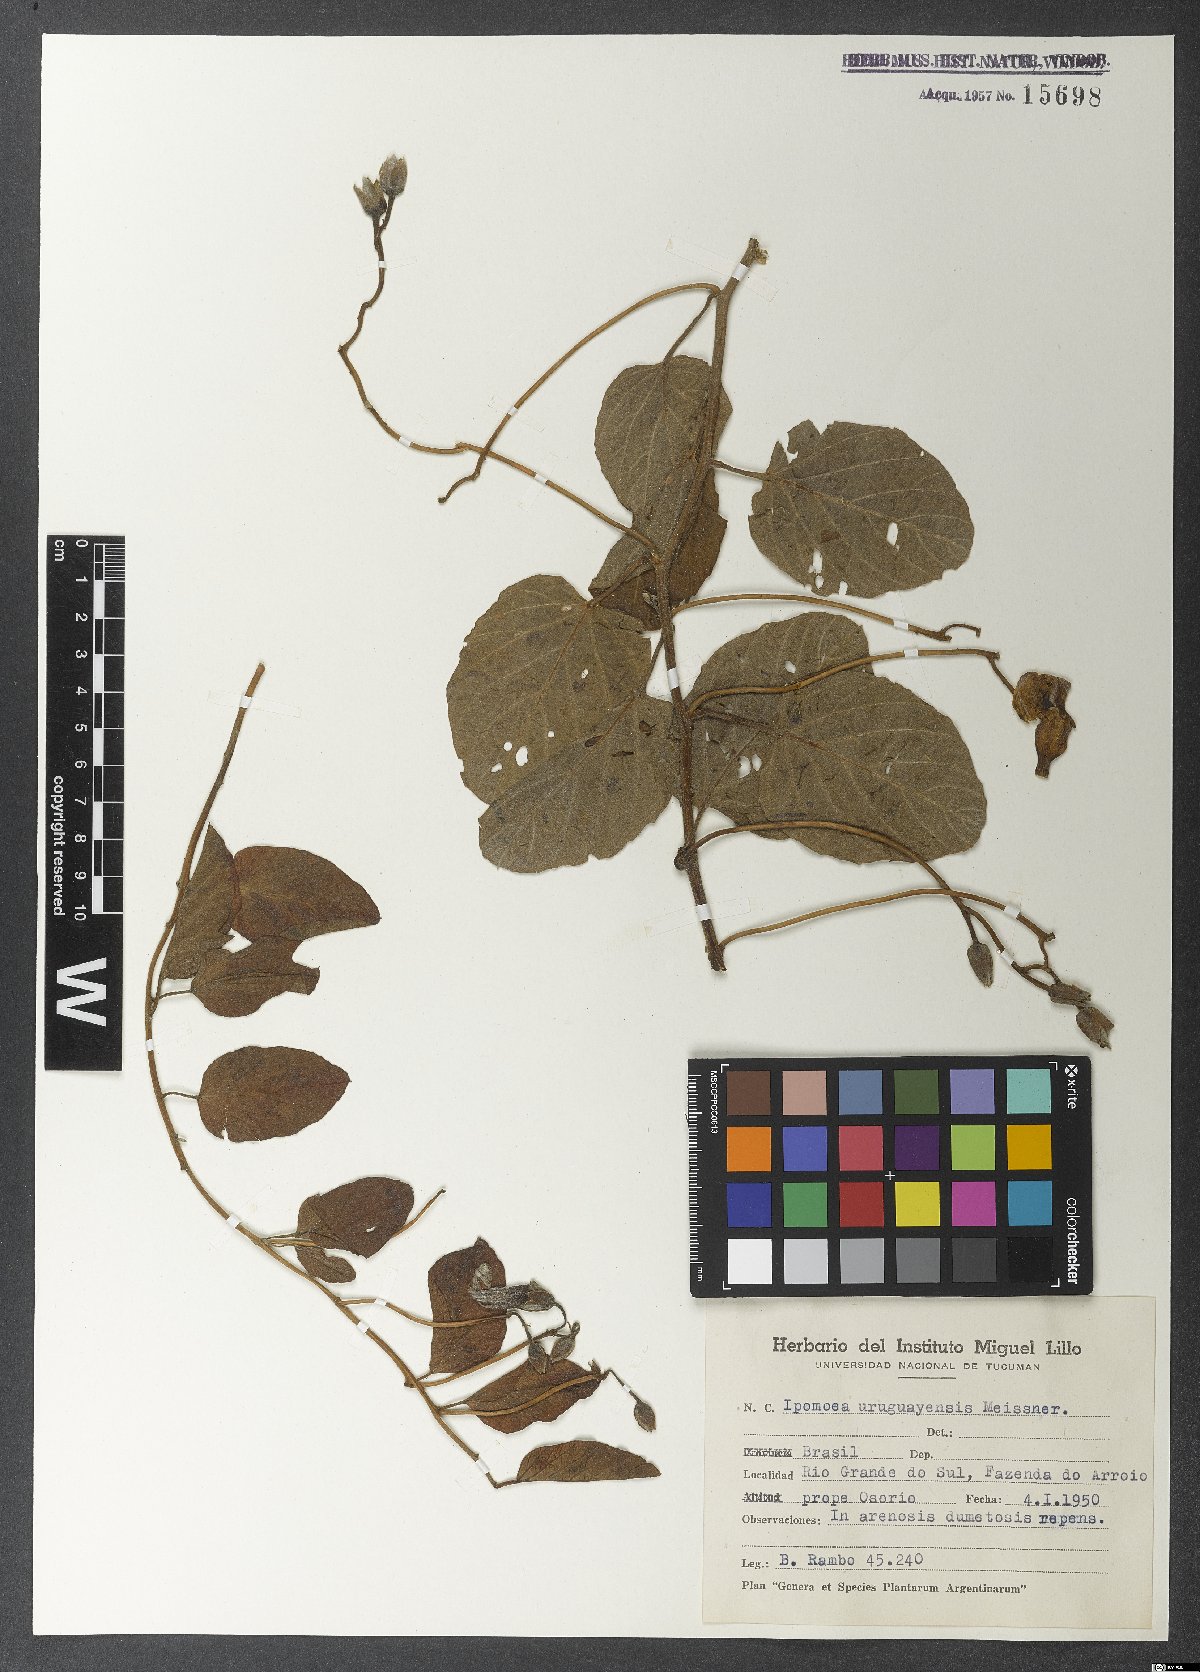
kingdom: Plantae
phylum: Tracheophyta
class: Magnoliopsida
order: Solanales
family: Convolvulaceae
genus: Ipomoea
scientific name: Ipomoea uruguayensis
